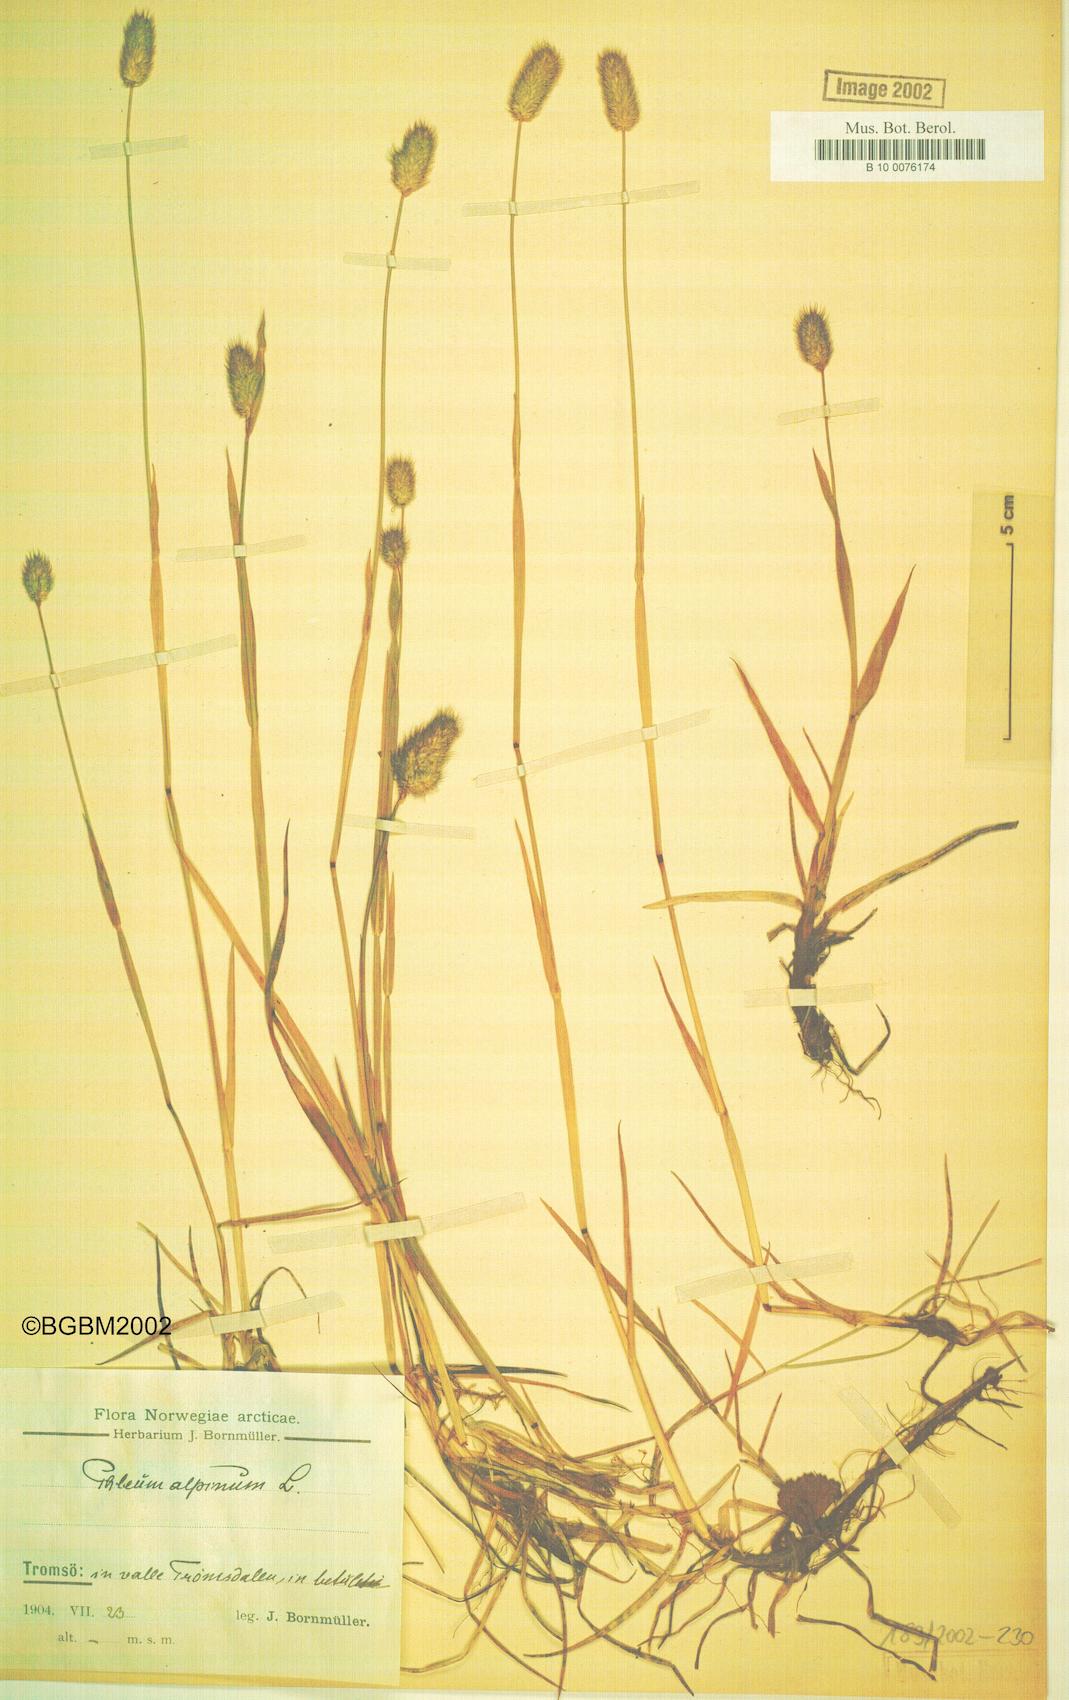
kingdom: Plantae
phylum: Tracheophyta
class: Liliopsida
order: Poales
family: Poaceae
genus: Phleum
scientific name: Phleum alpinum
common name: Alpine cat's-tail
